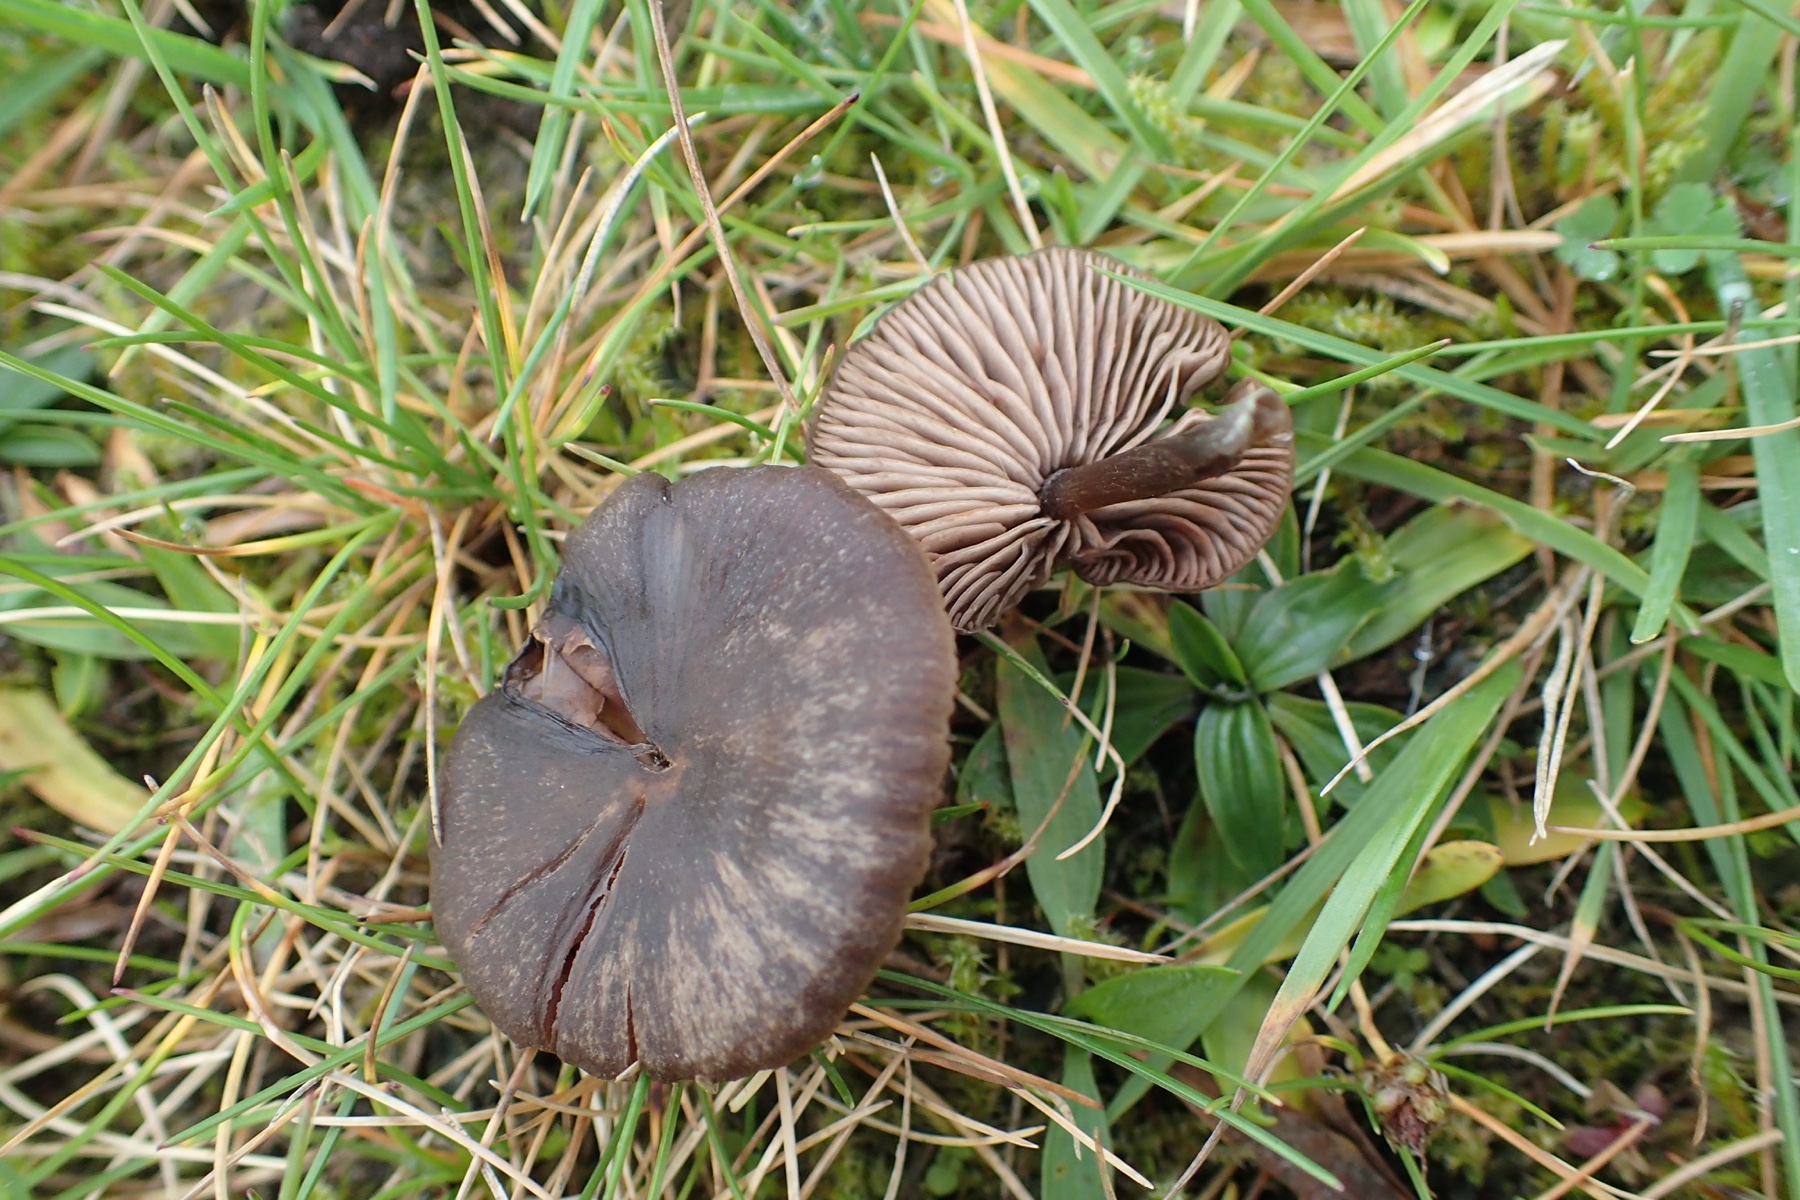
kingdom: Fungi
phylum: Basidiomycota
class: Agaricomycetes
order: Agaricales
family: Entolomataceae
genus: Entoloma
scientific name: Entoloma sericeum
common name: silkeglinsende rødblad
